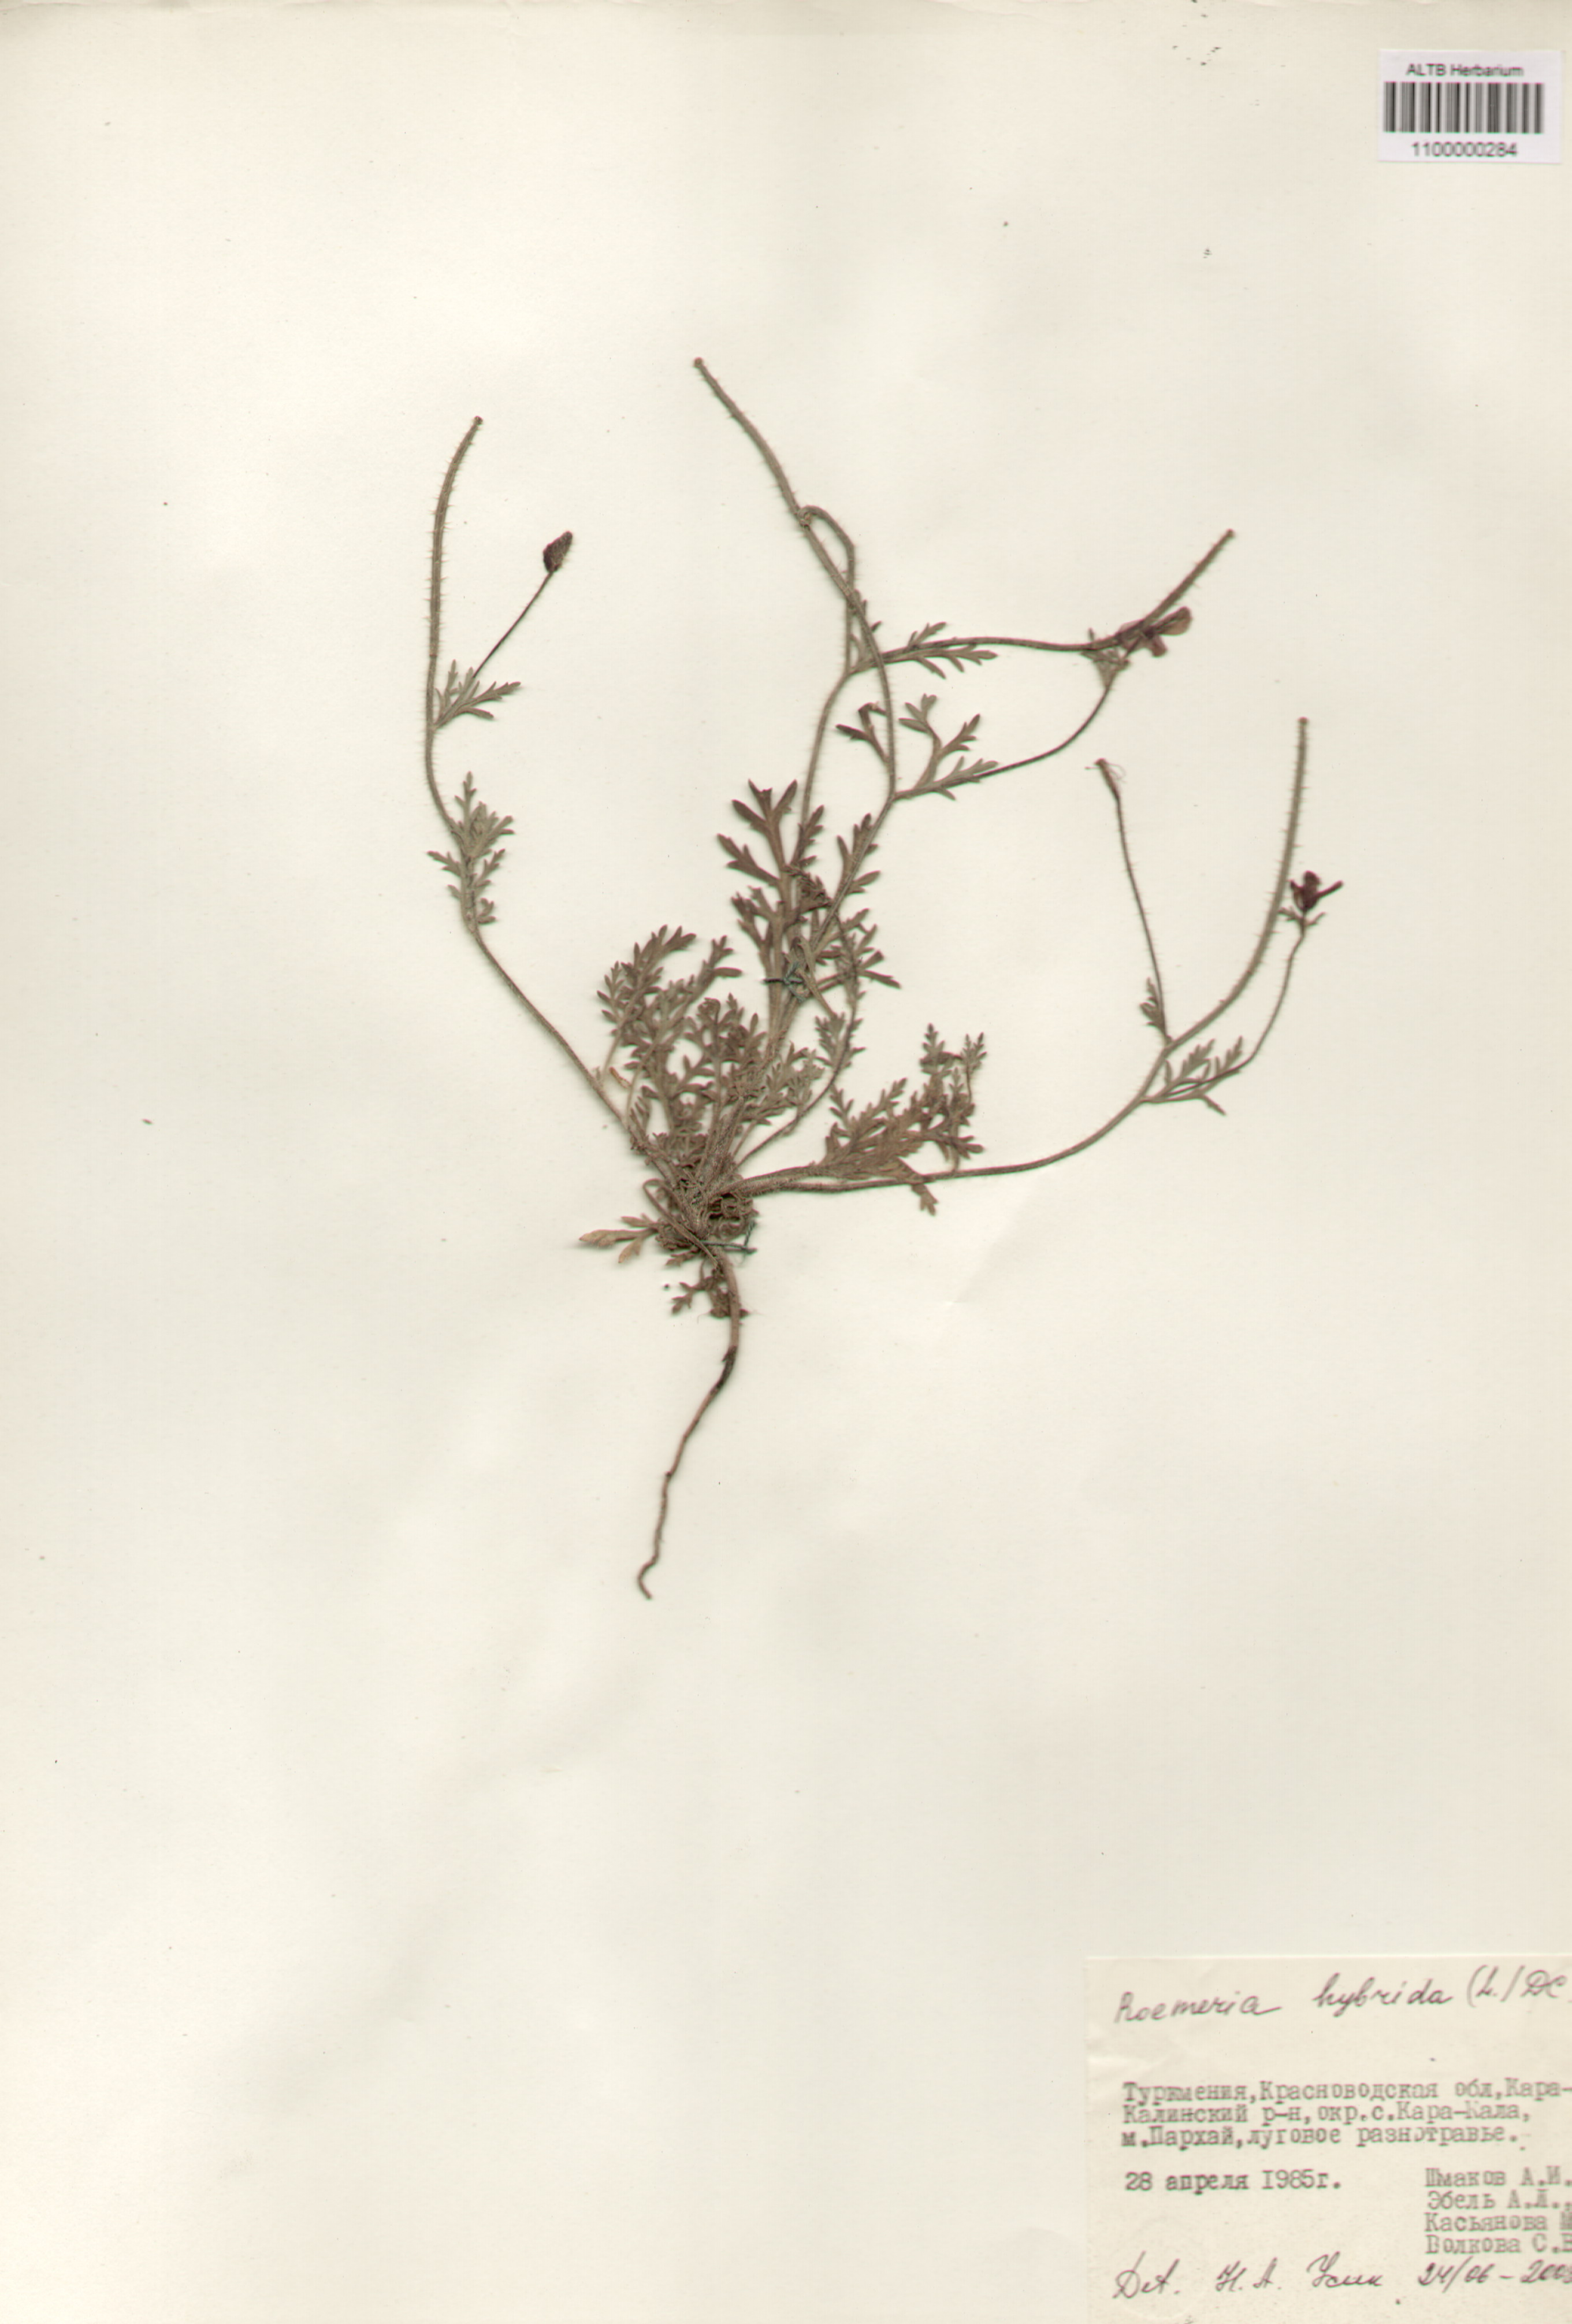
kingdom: Plantae
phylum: Tracheophyta
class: Magnoliopsida
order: Ranunculales
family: Papaveraceae
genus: Roemeria
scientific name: Roemeria hybrida
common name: Violet horned-poppy
